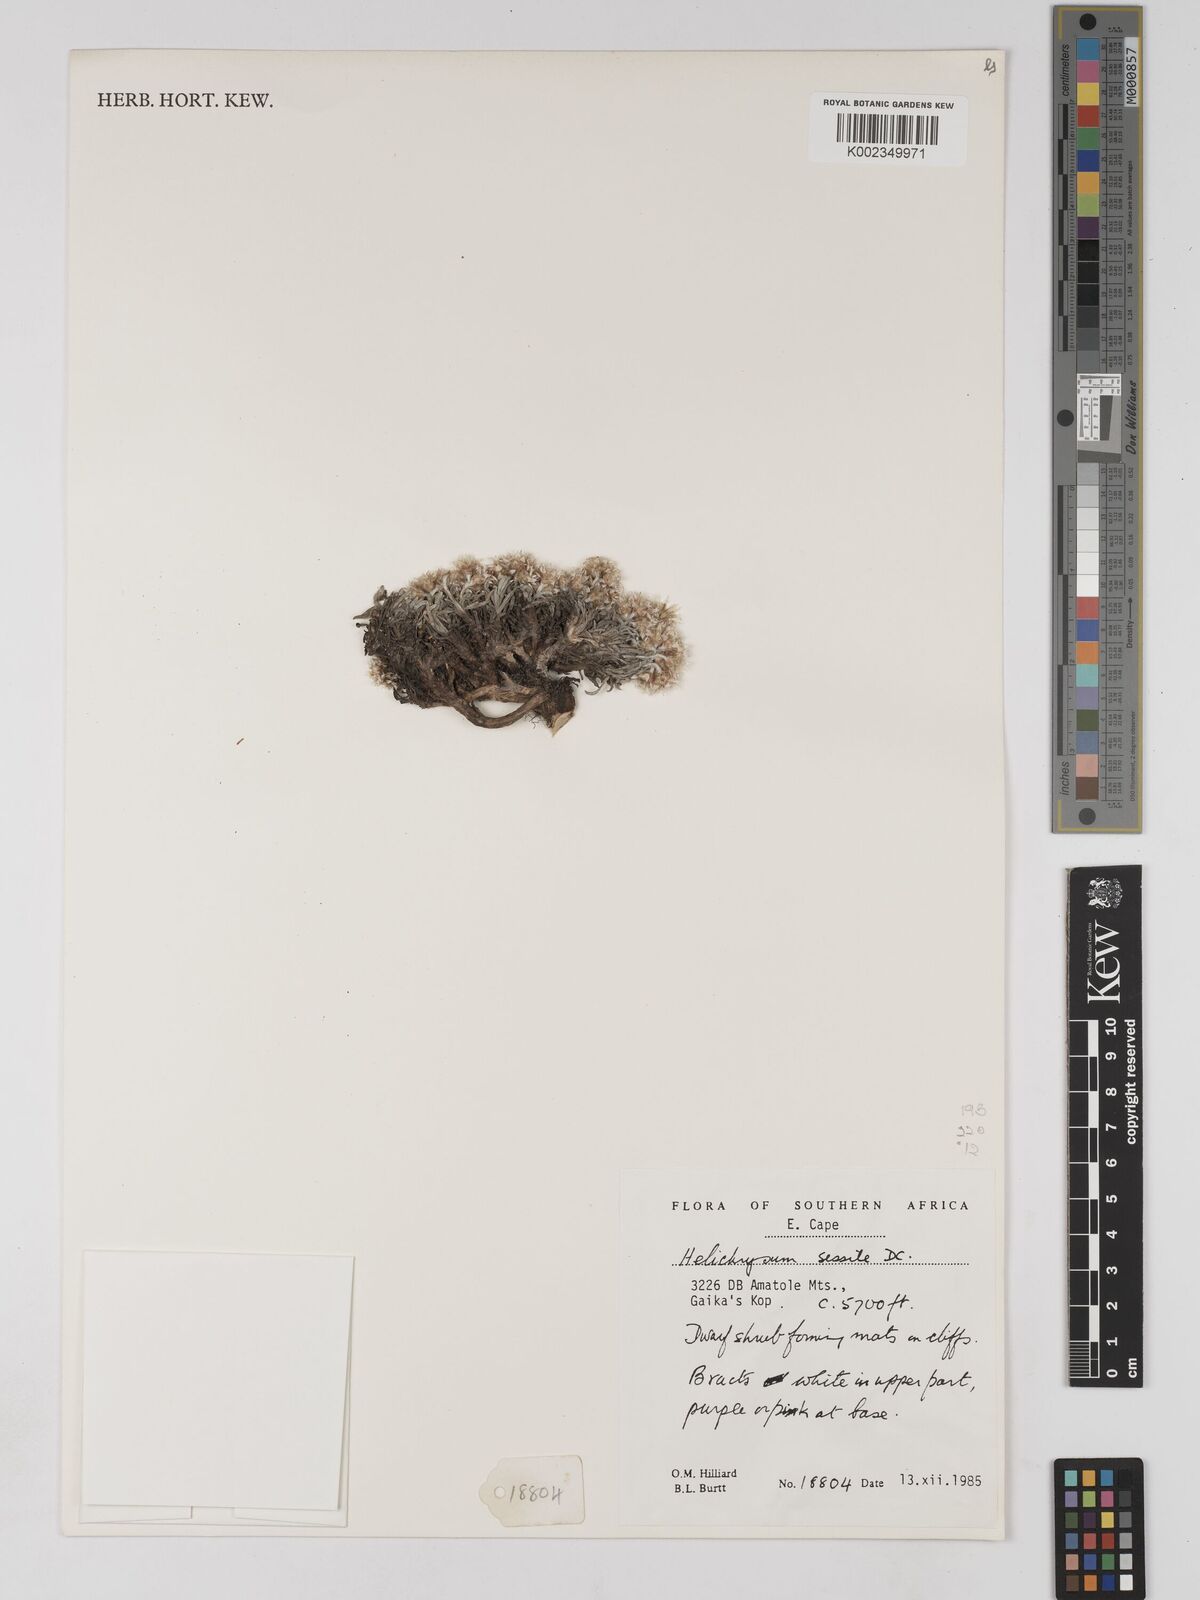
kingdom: Plantae
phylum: Tracheophyta
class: Magnoliopsida
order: Asterales
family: Asteraceae
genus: Helichrysum
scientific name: Helichrysum sessile
